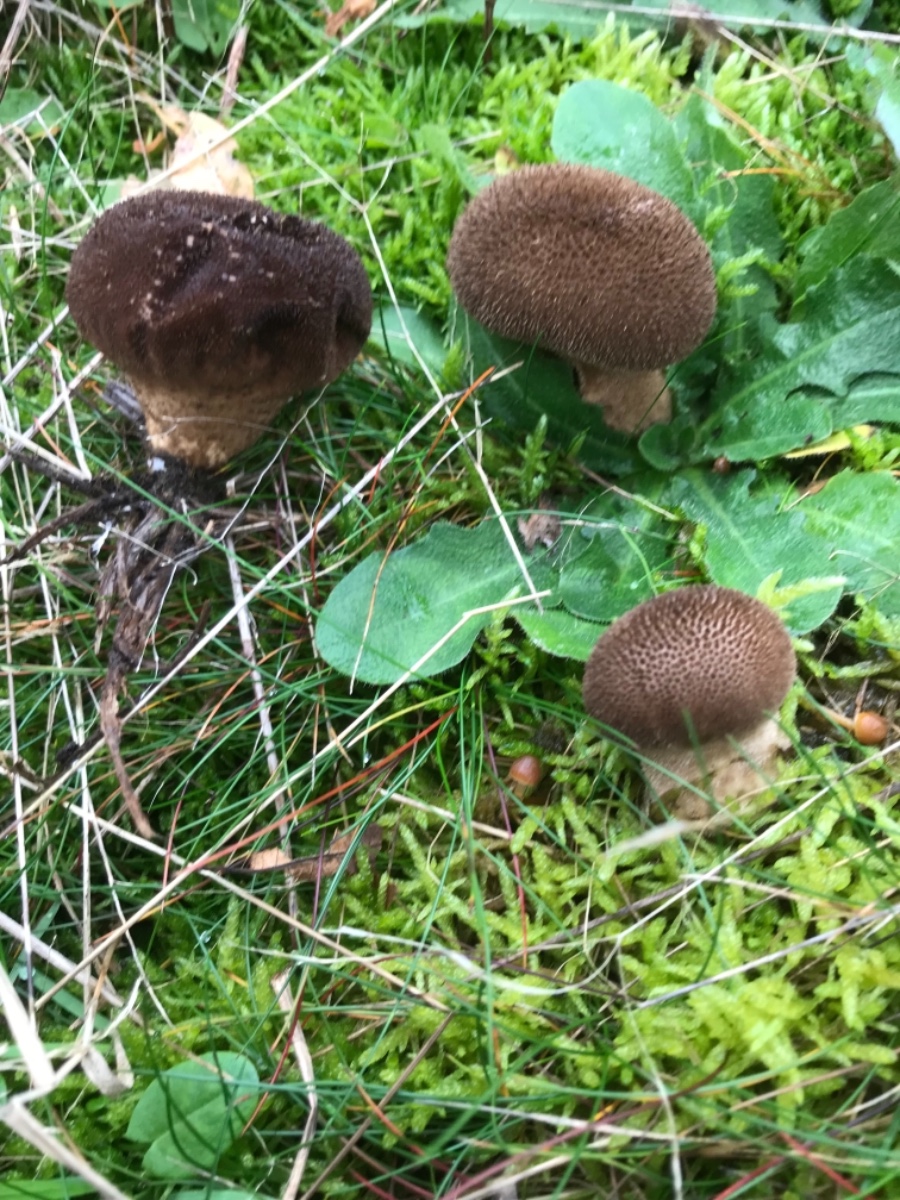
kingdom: Fungi
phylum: Basidiomycota
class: Agaricomycetes
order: Agaricales
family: Lycoperdaceae
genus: Lycoperdon
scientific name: Lycoperdon nigrescens
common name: sortagtig støvbold
